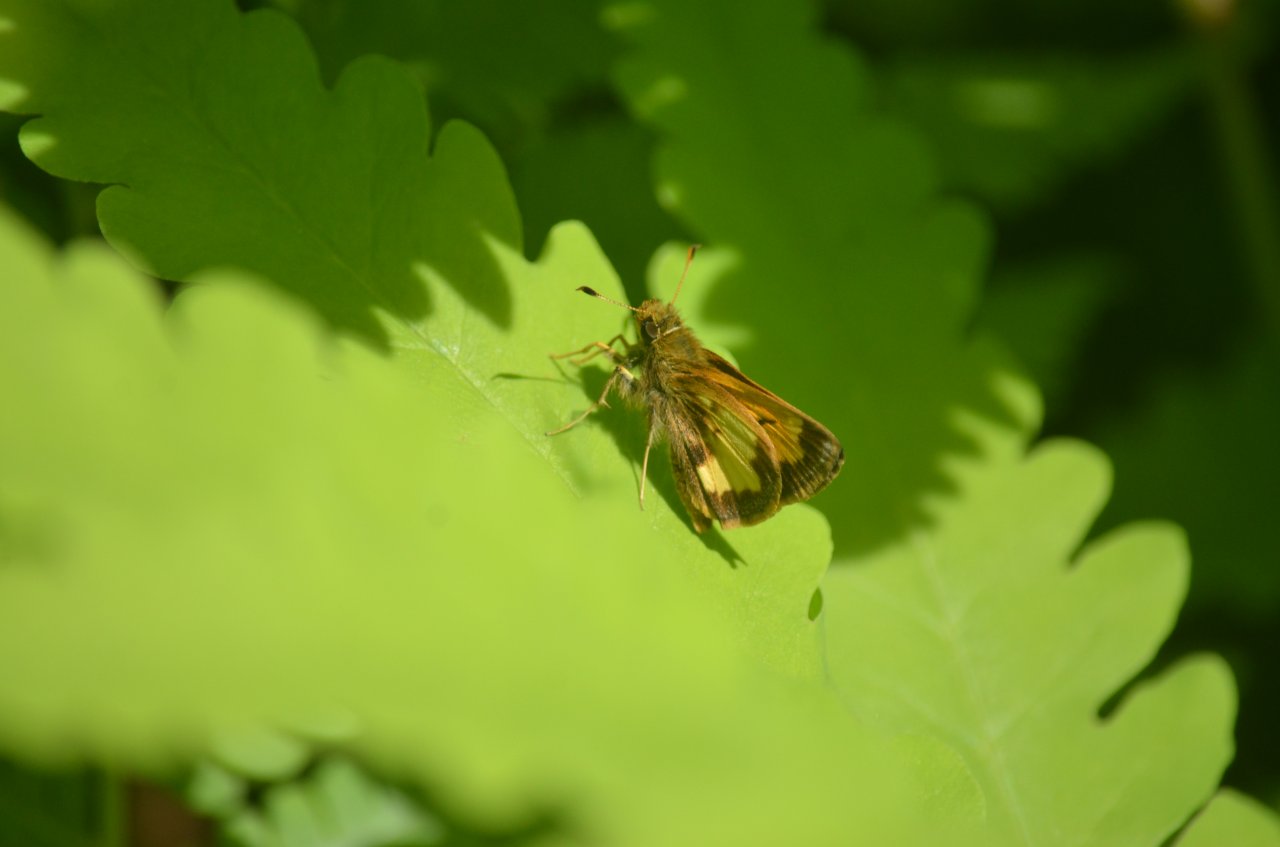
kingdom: Animalia
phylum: Arthropoda
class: Insecta
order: Lepidoptera
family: Hesperiidae
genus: Lon
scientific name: Lon hobomok
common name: Hobomok Skipper
